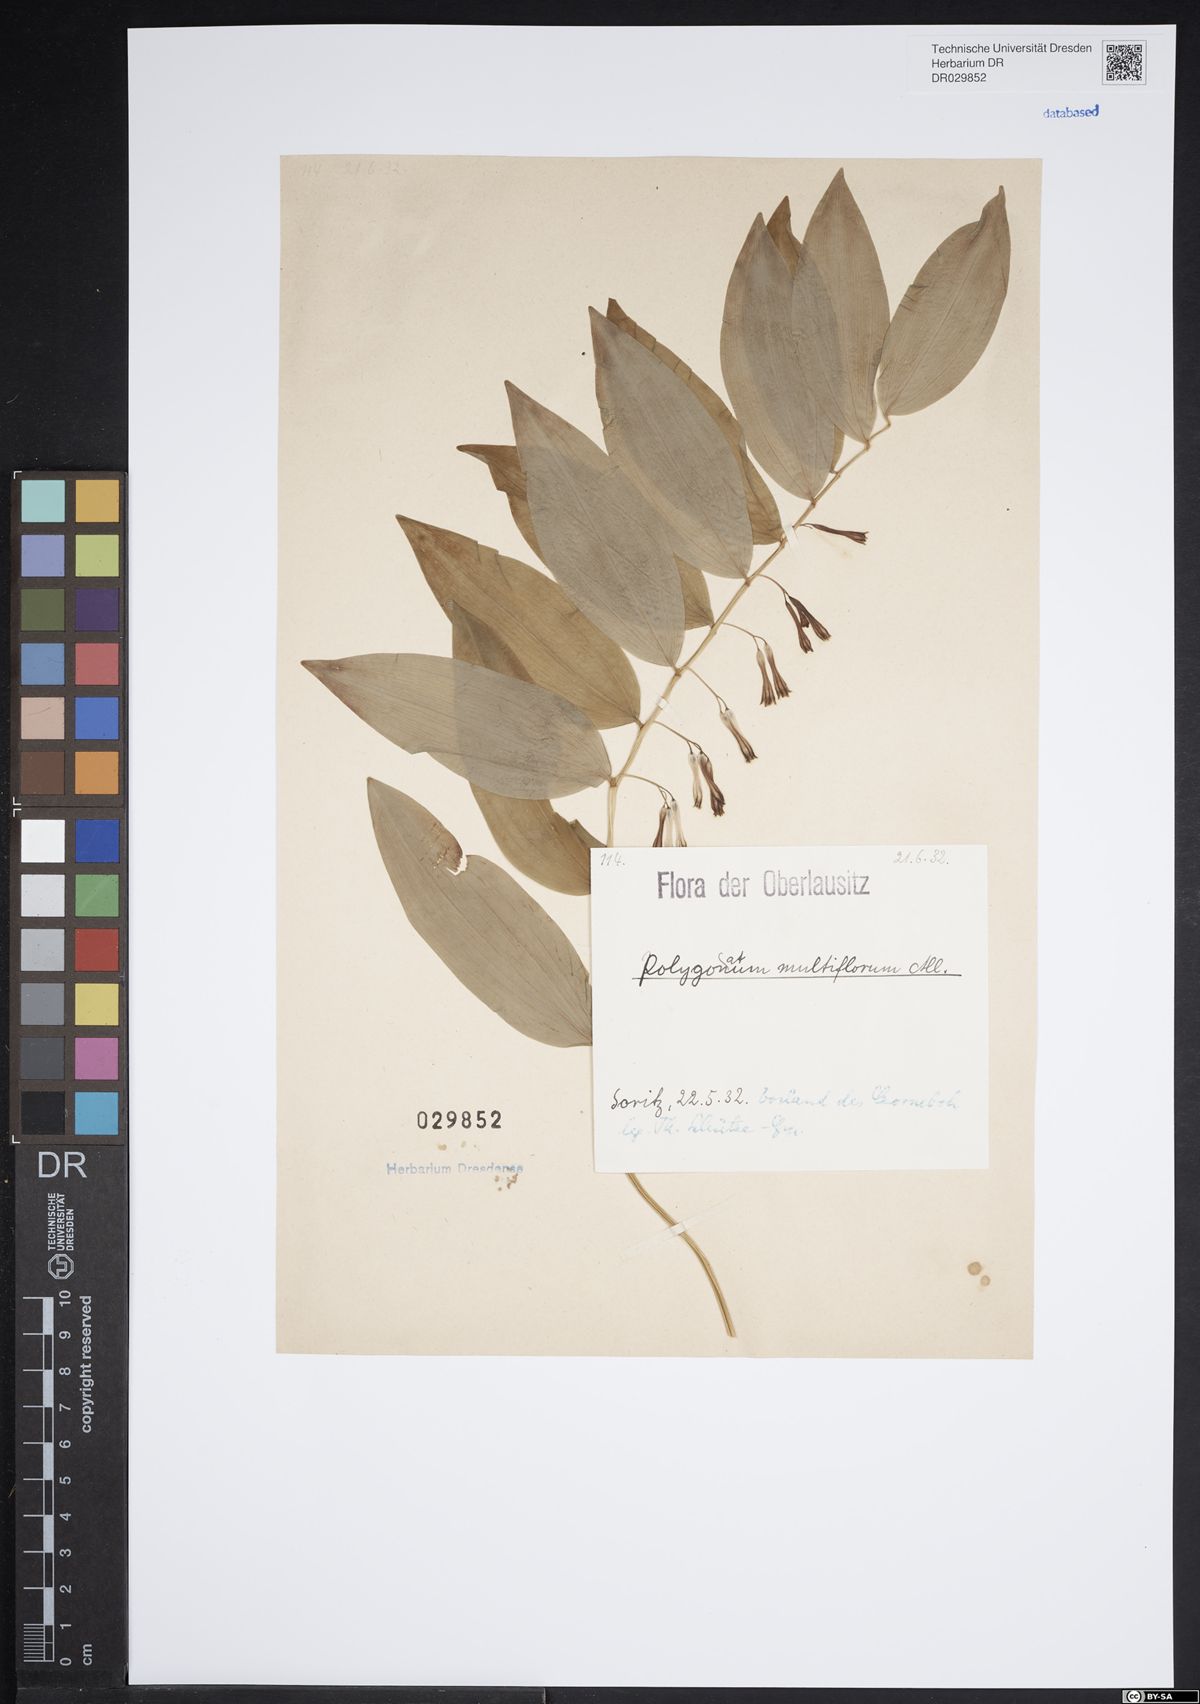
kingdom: Plantae
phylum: Tracheophyta
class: Liliopsida
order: Asparagales
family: Asparagaceae
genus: Polygonatum
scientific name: Polygonatum odoratum
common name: Angular solomon's-seal
